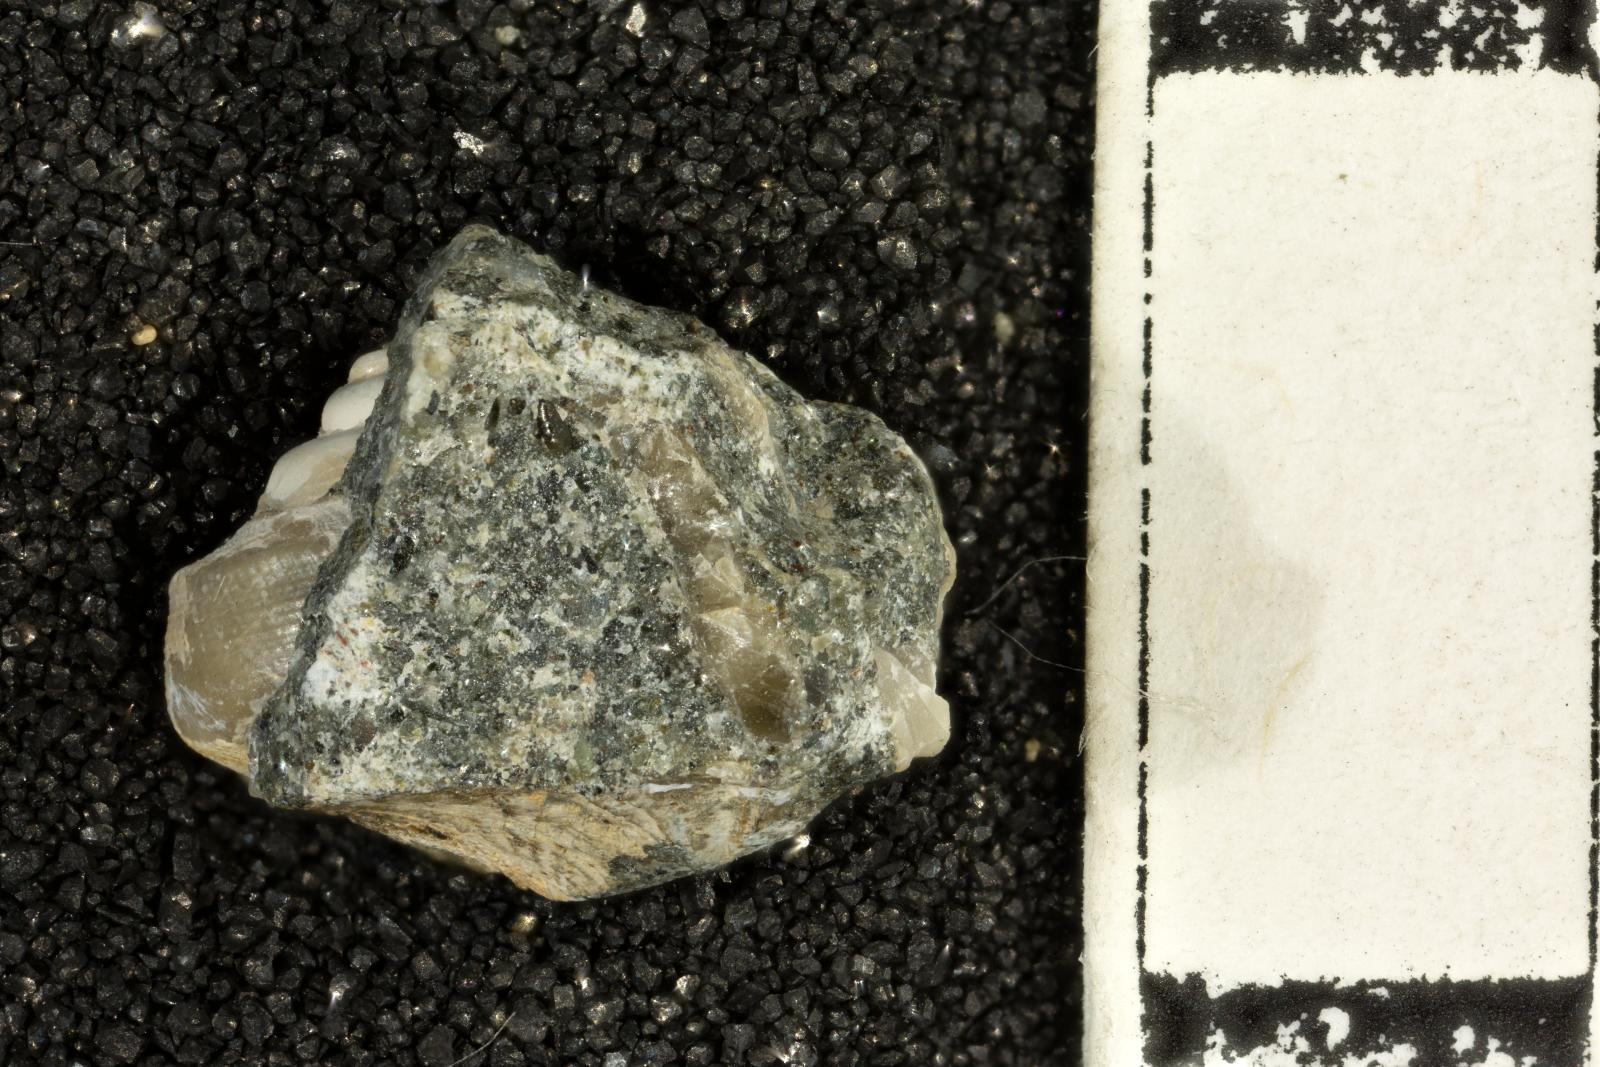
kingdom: Animalia
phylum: Mollusca
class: Bivalvia
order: Ostreida
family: Pteriidae
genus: Atira
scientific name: Atira Angaria ornatissima
